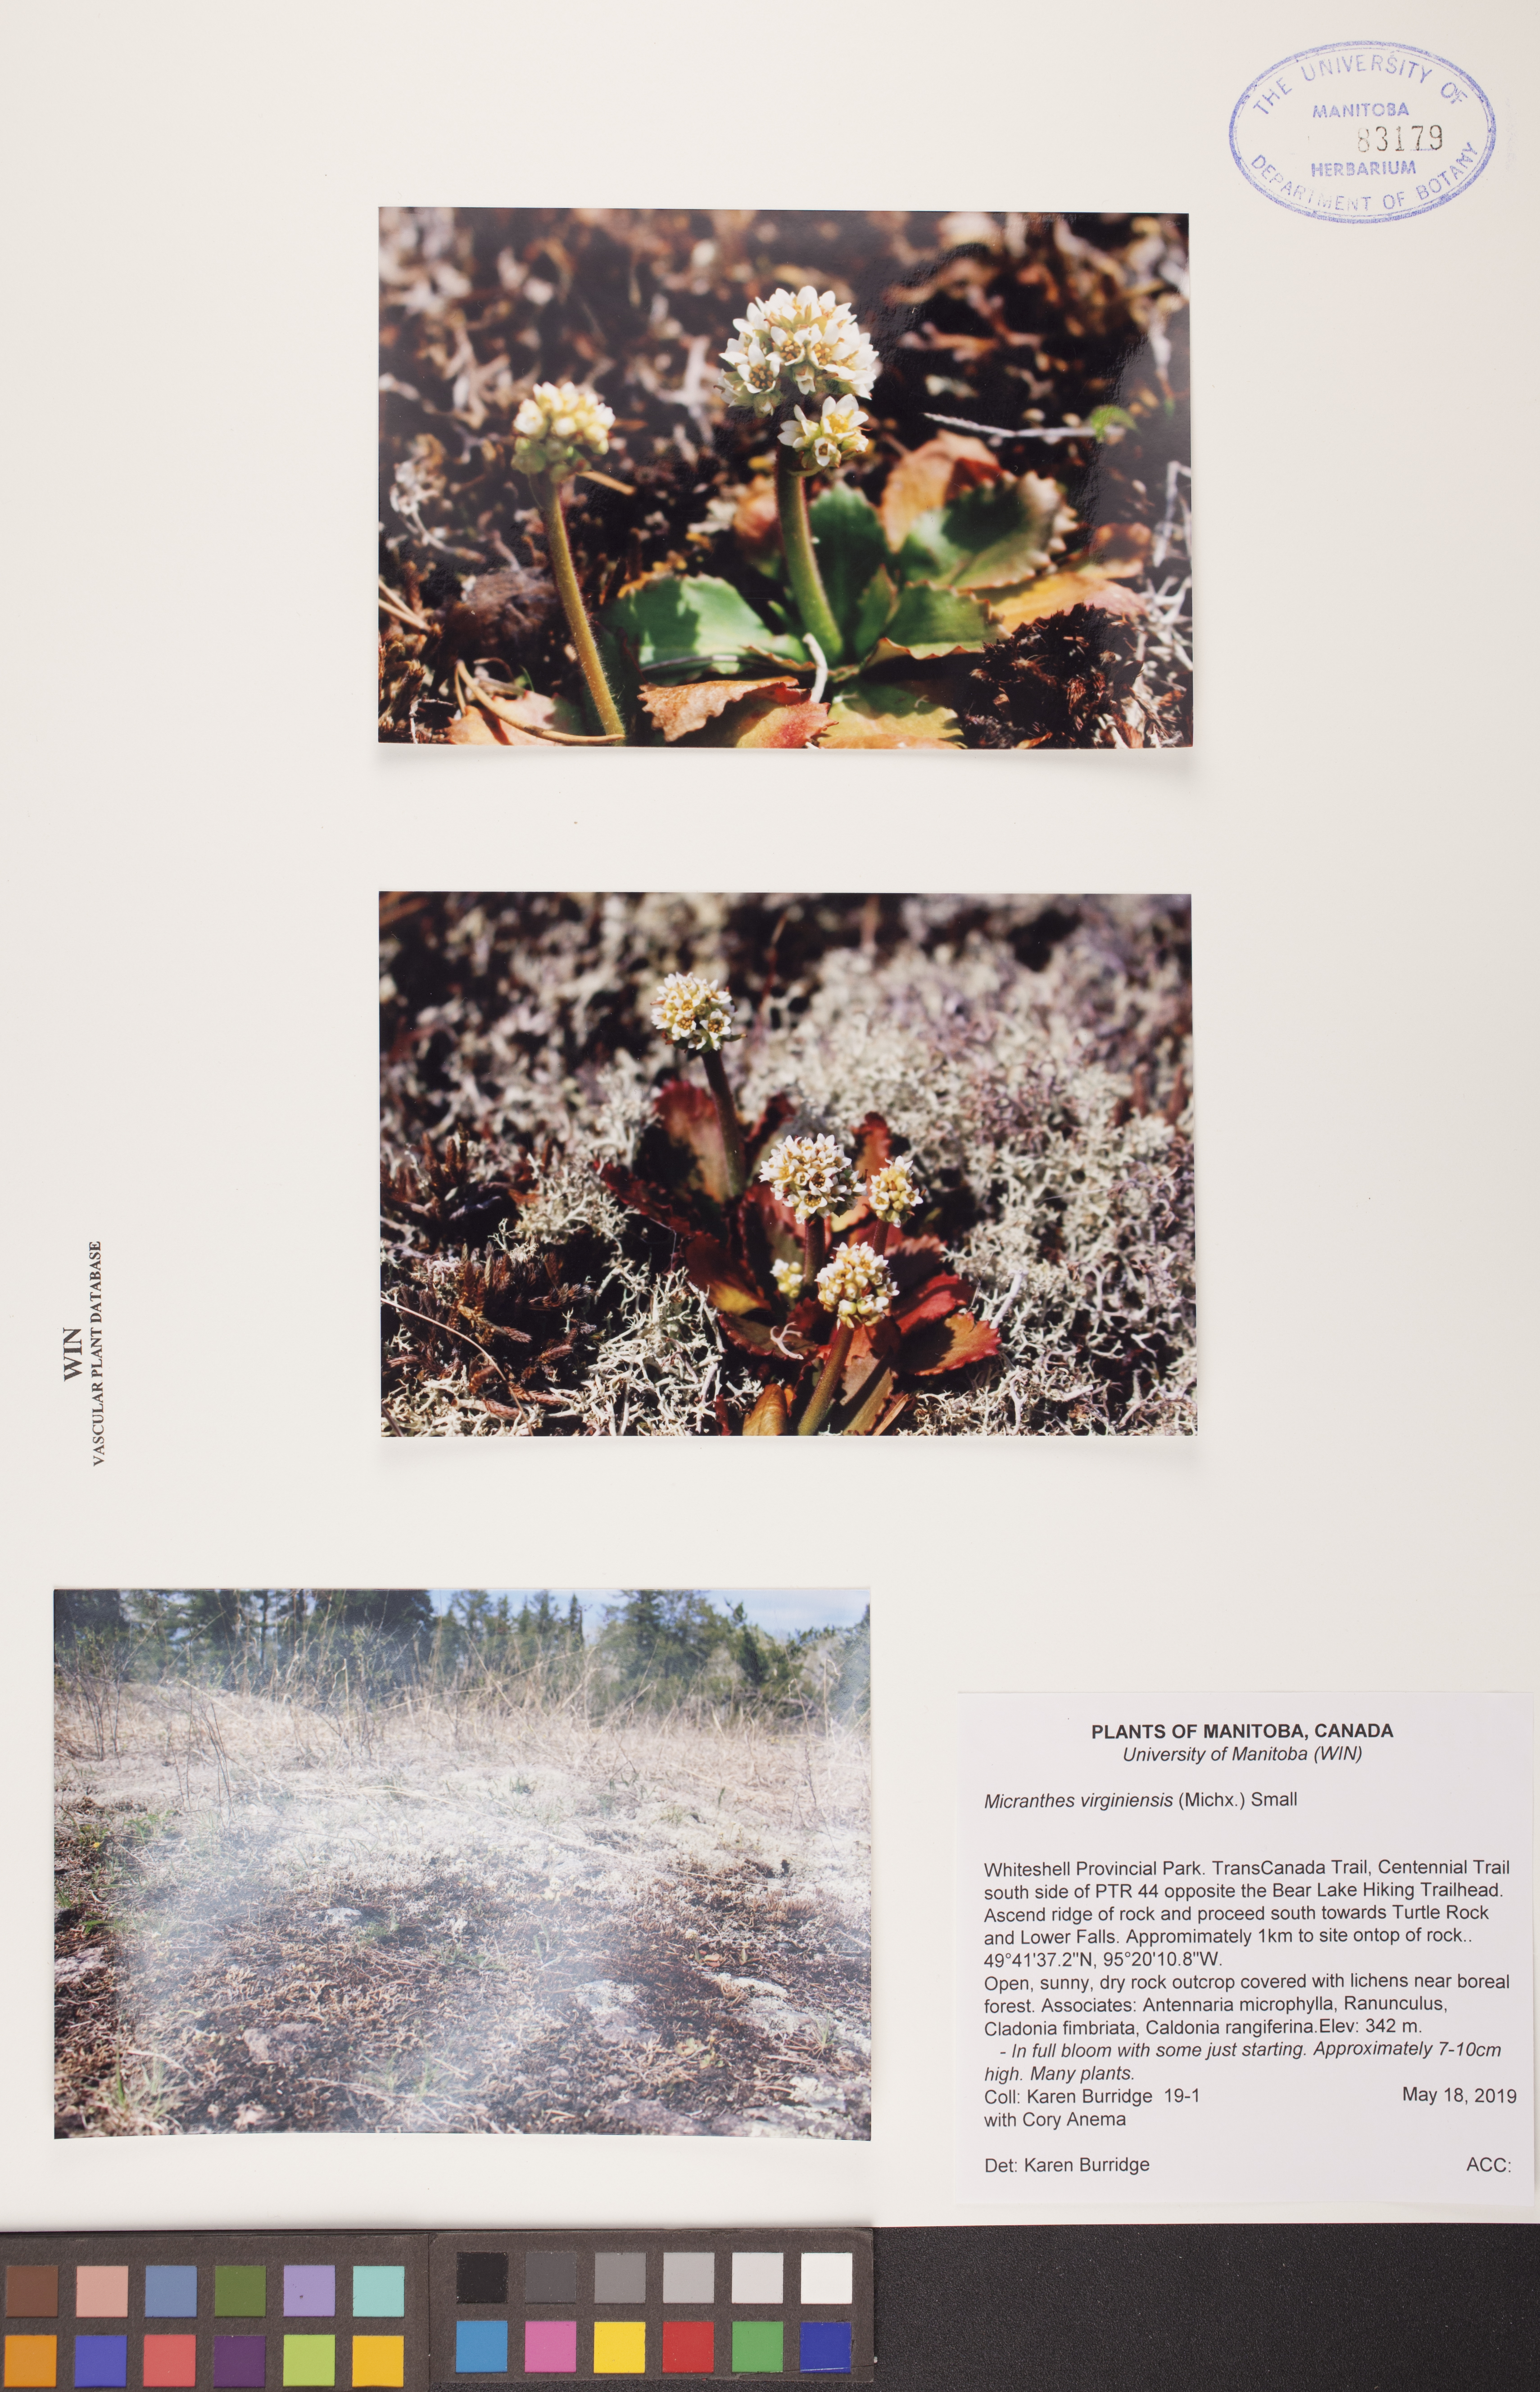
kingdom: Plantae
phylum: Tracheophyta
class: Magnoliopsida
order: Saxifragales
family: Saxifragaceae
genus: Micranthes
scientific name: Micranthes virginiensis
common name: Early saxifrage
